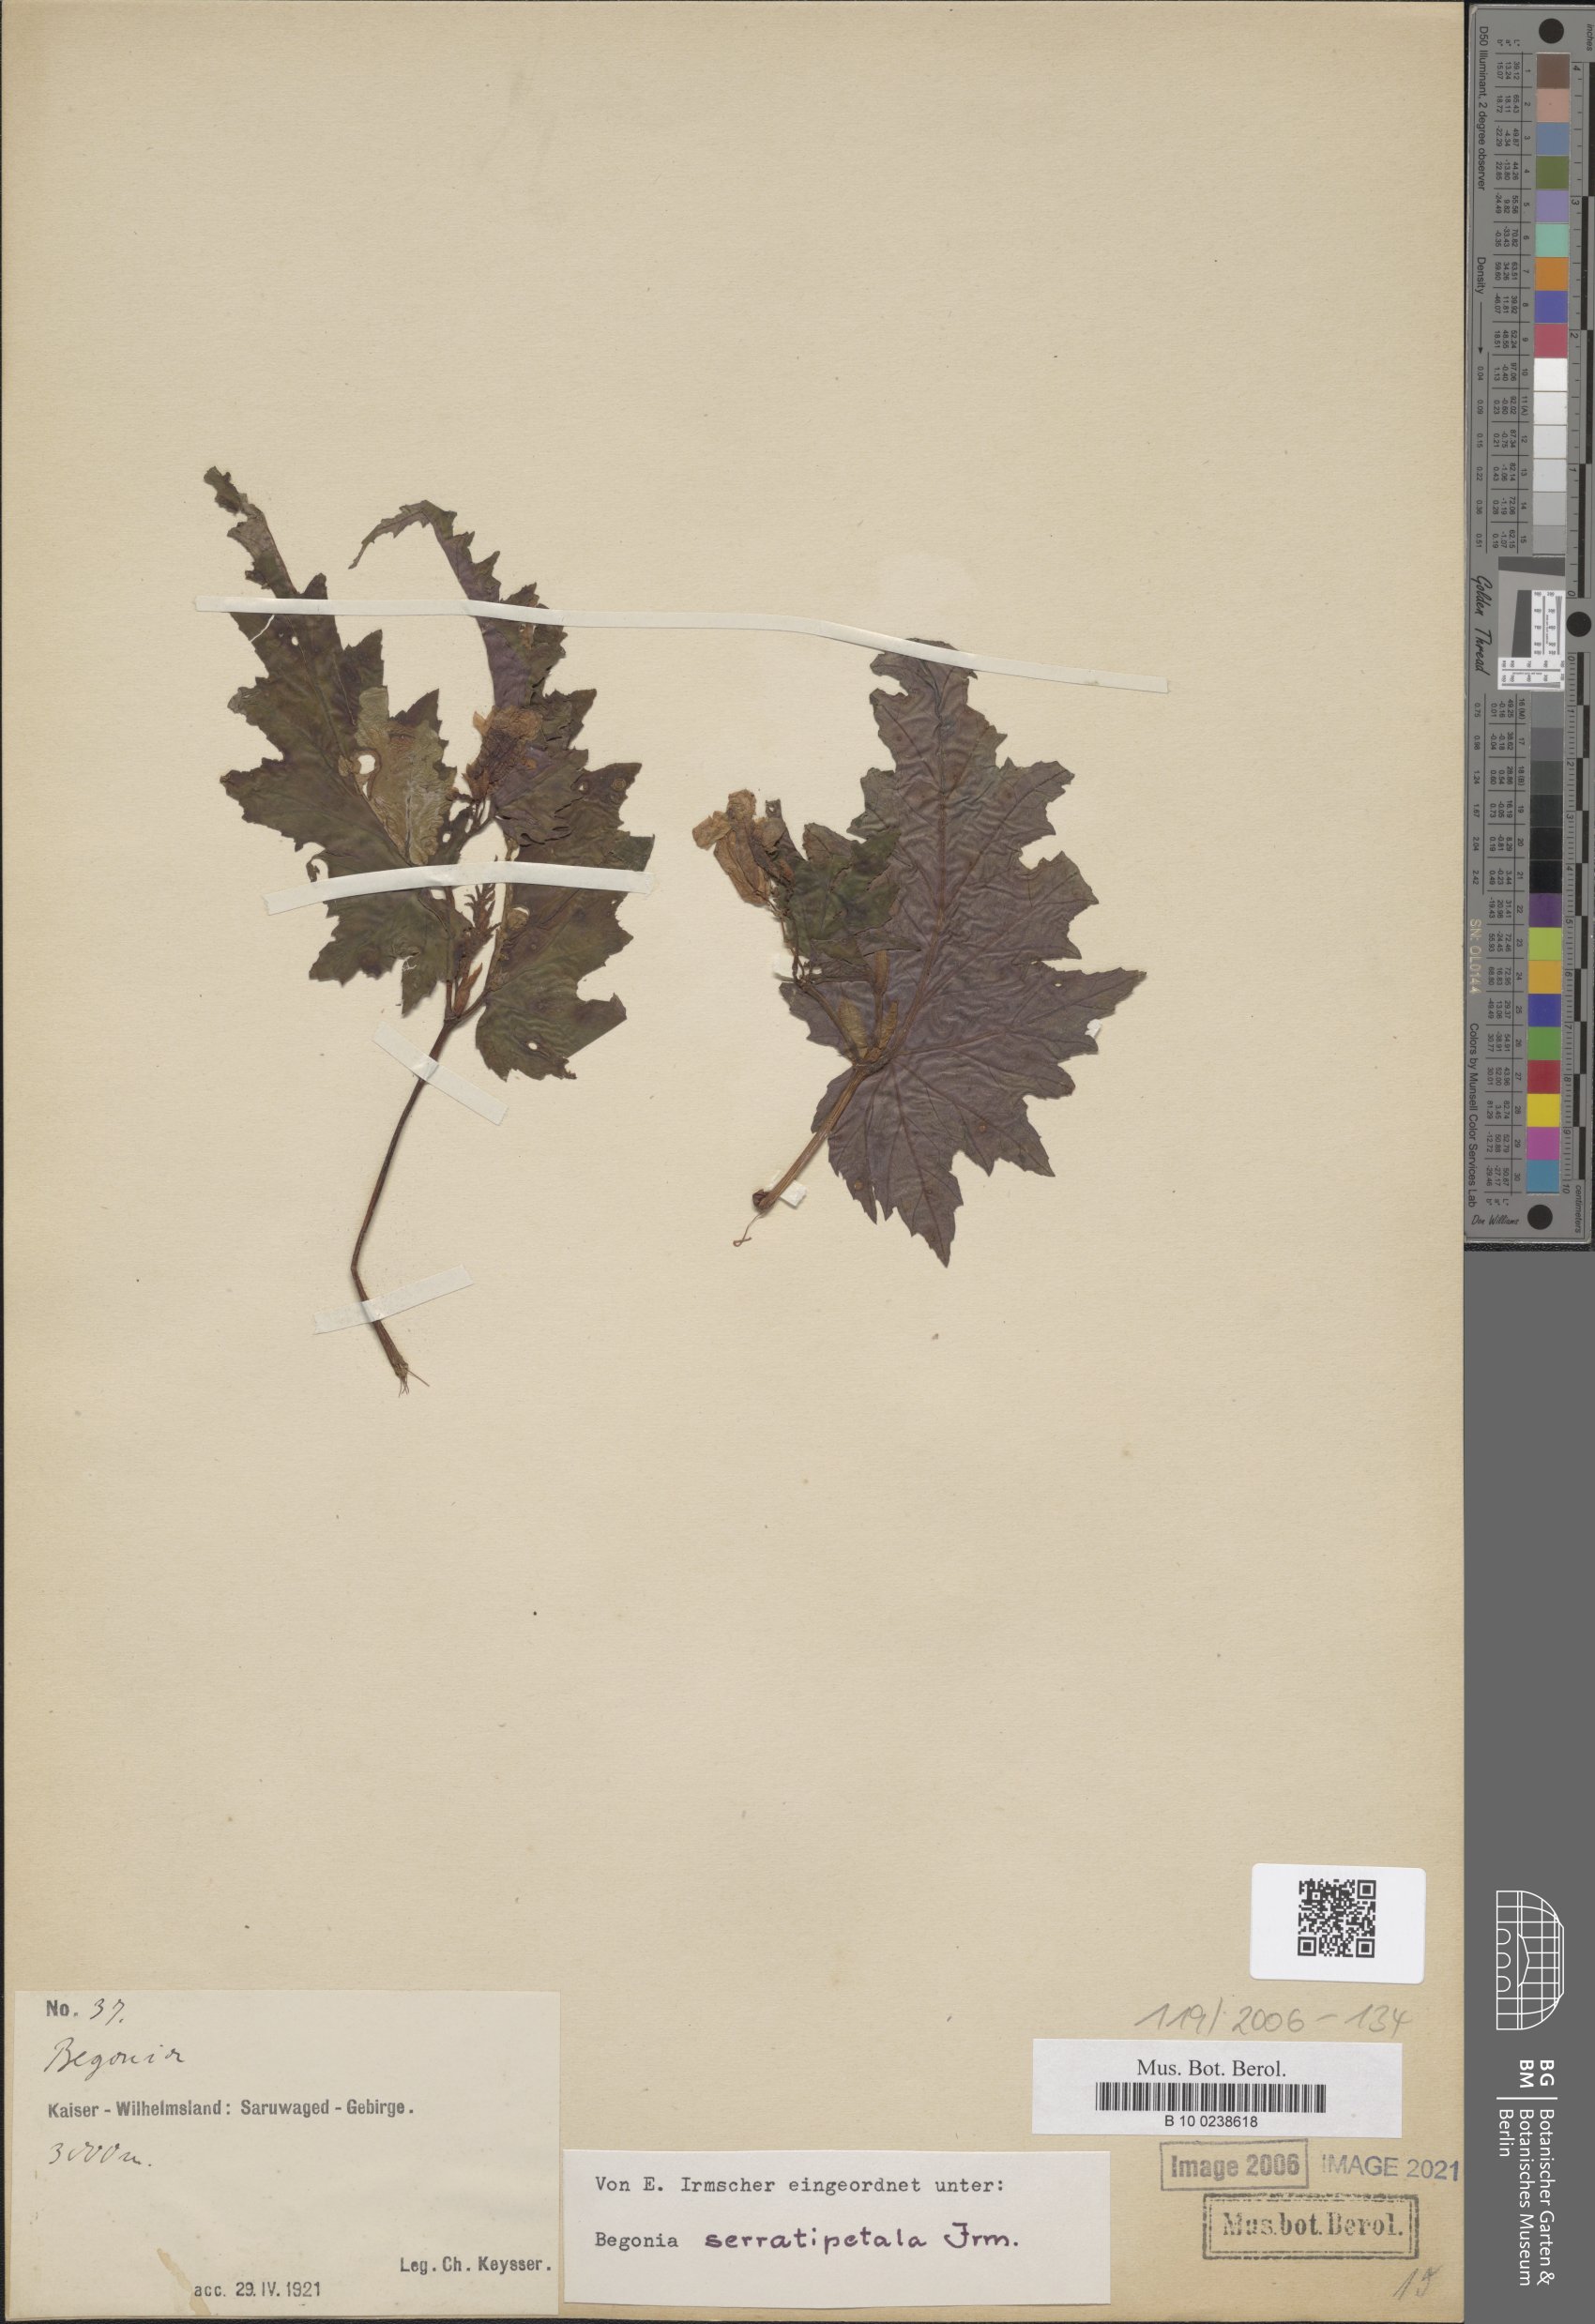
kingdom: Plantae
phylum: Tracheophyta
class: Magnoliopsida
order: Cucurbitales
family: Begoniaceae
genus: Begonia
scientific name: Begonia serratipetala
